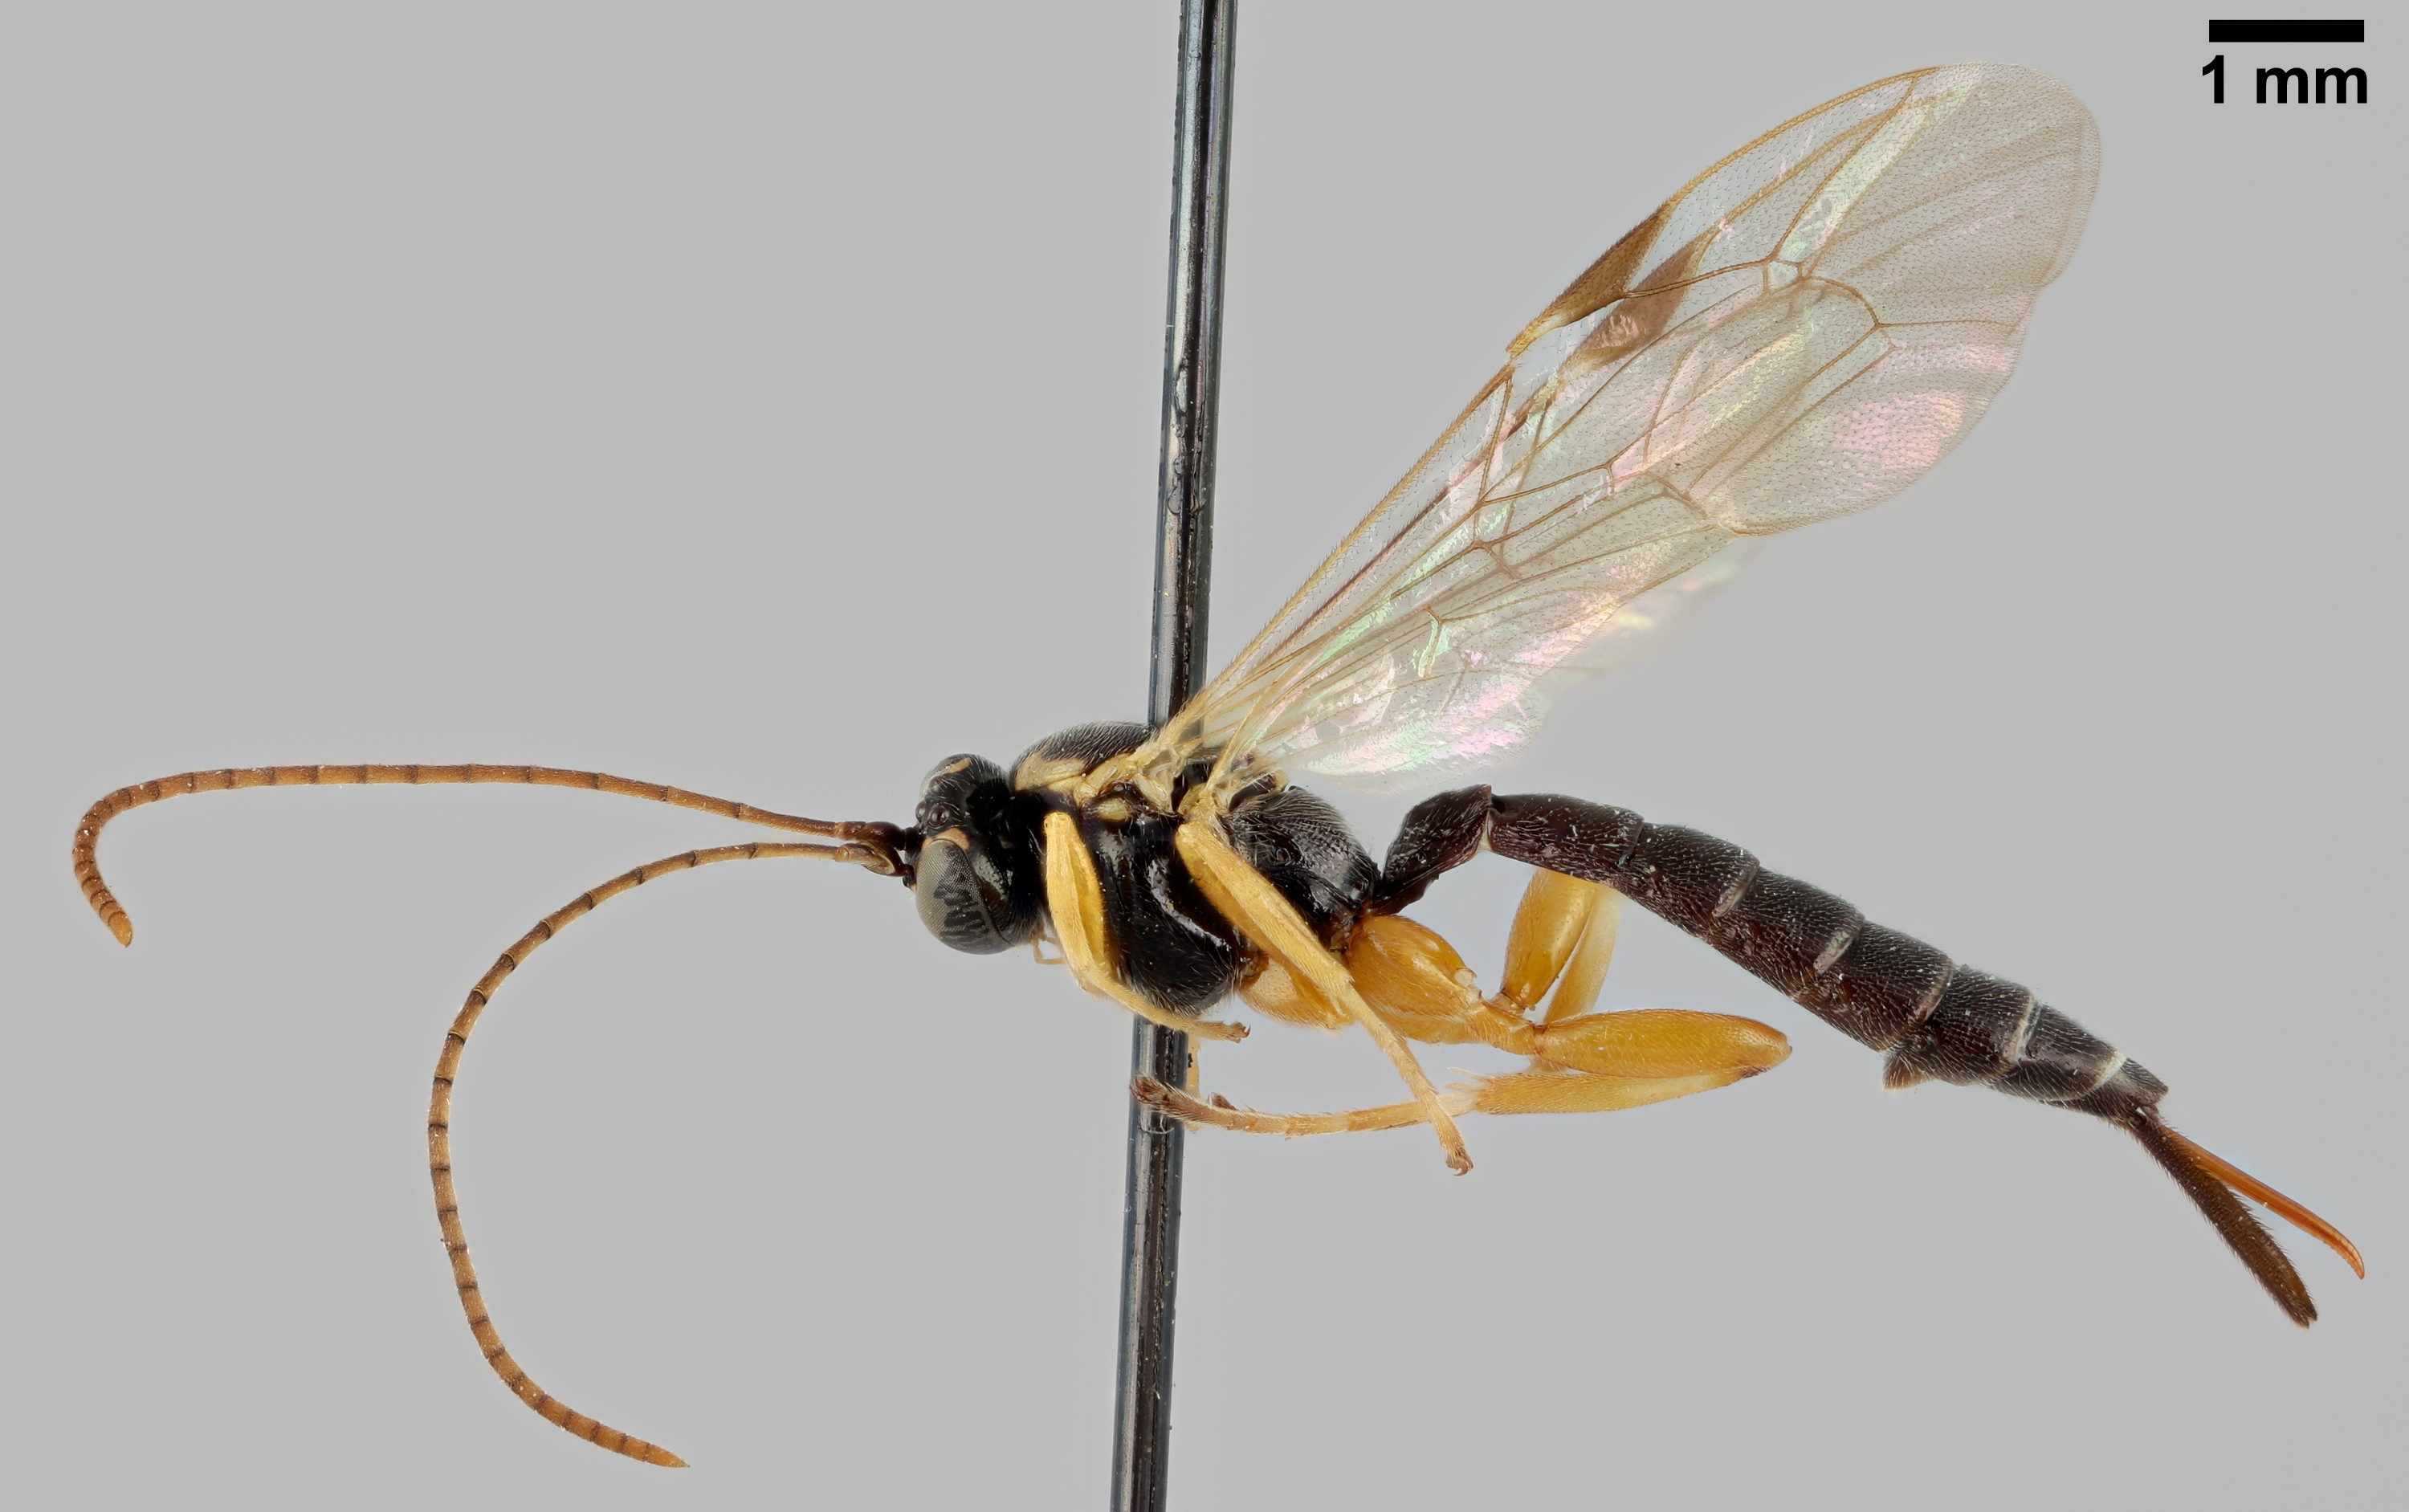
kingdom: Animalia
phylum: Arthropoda
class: Insecta
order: Hymenoptera
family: Ichneumonidae
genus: Apechthis
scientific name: Apechthis rufata
